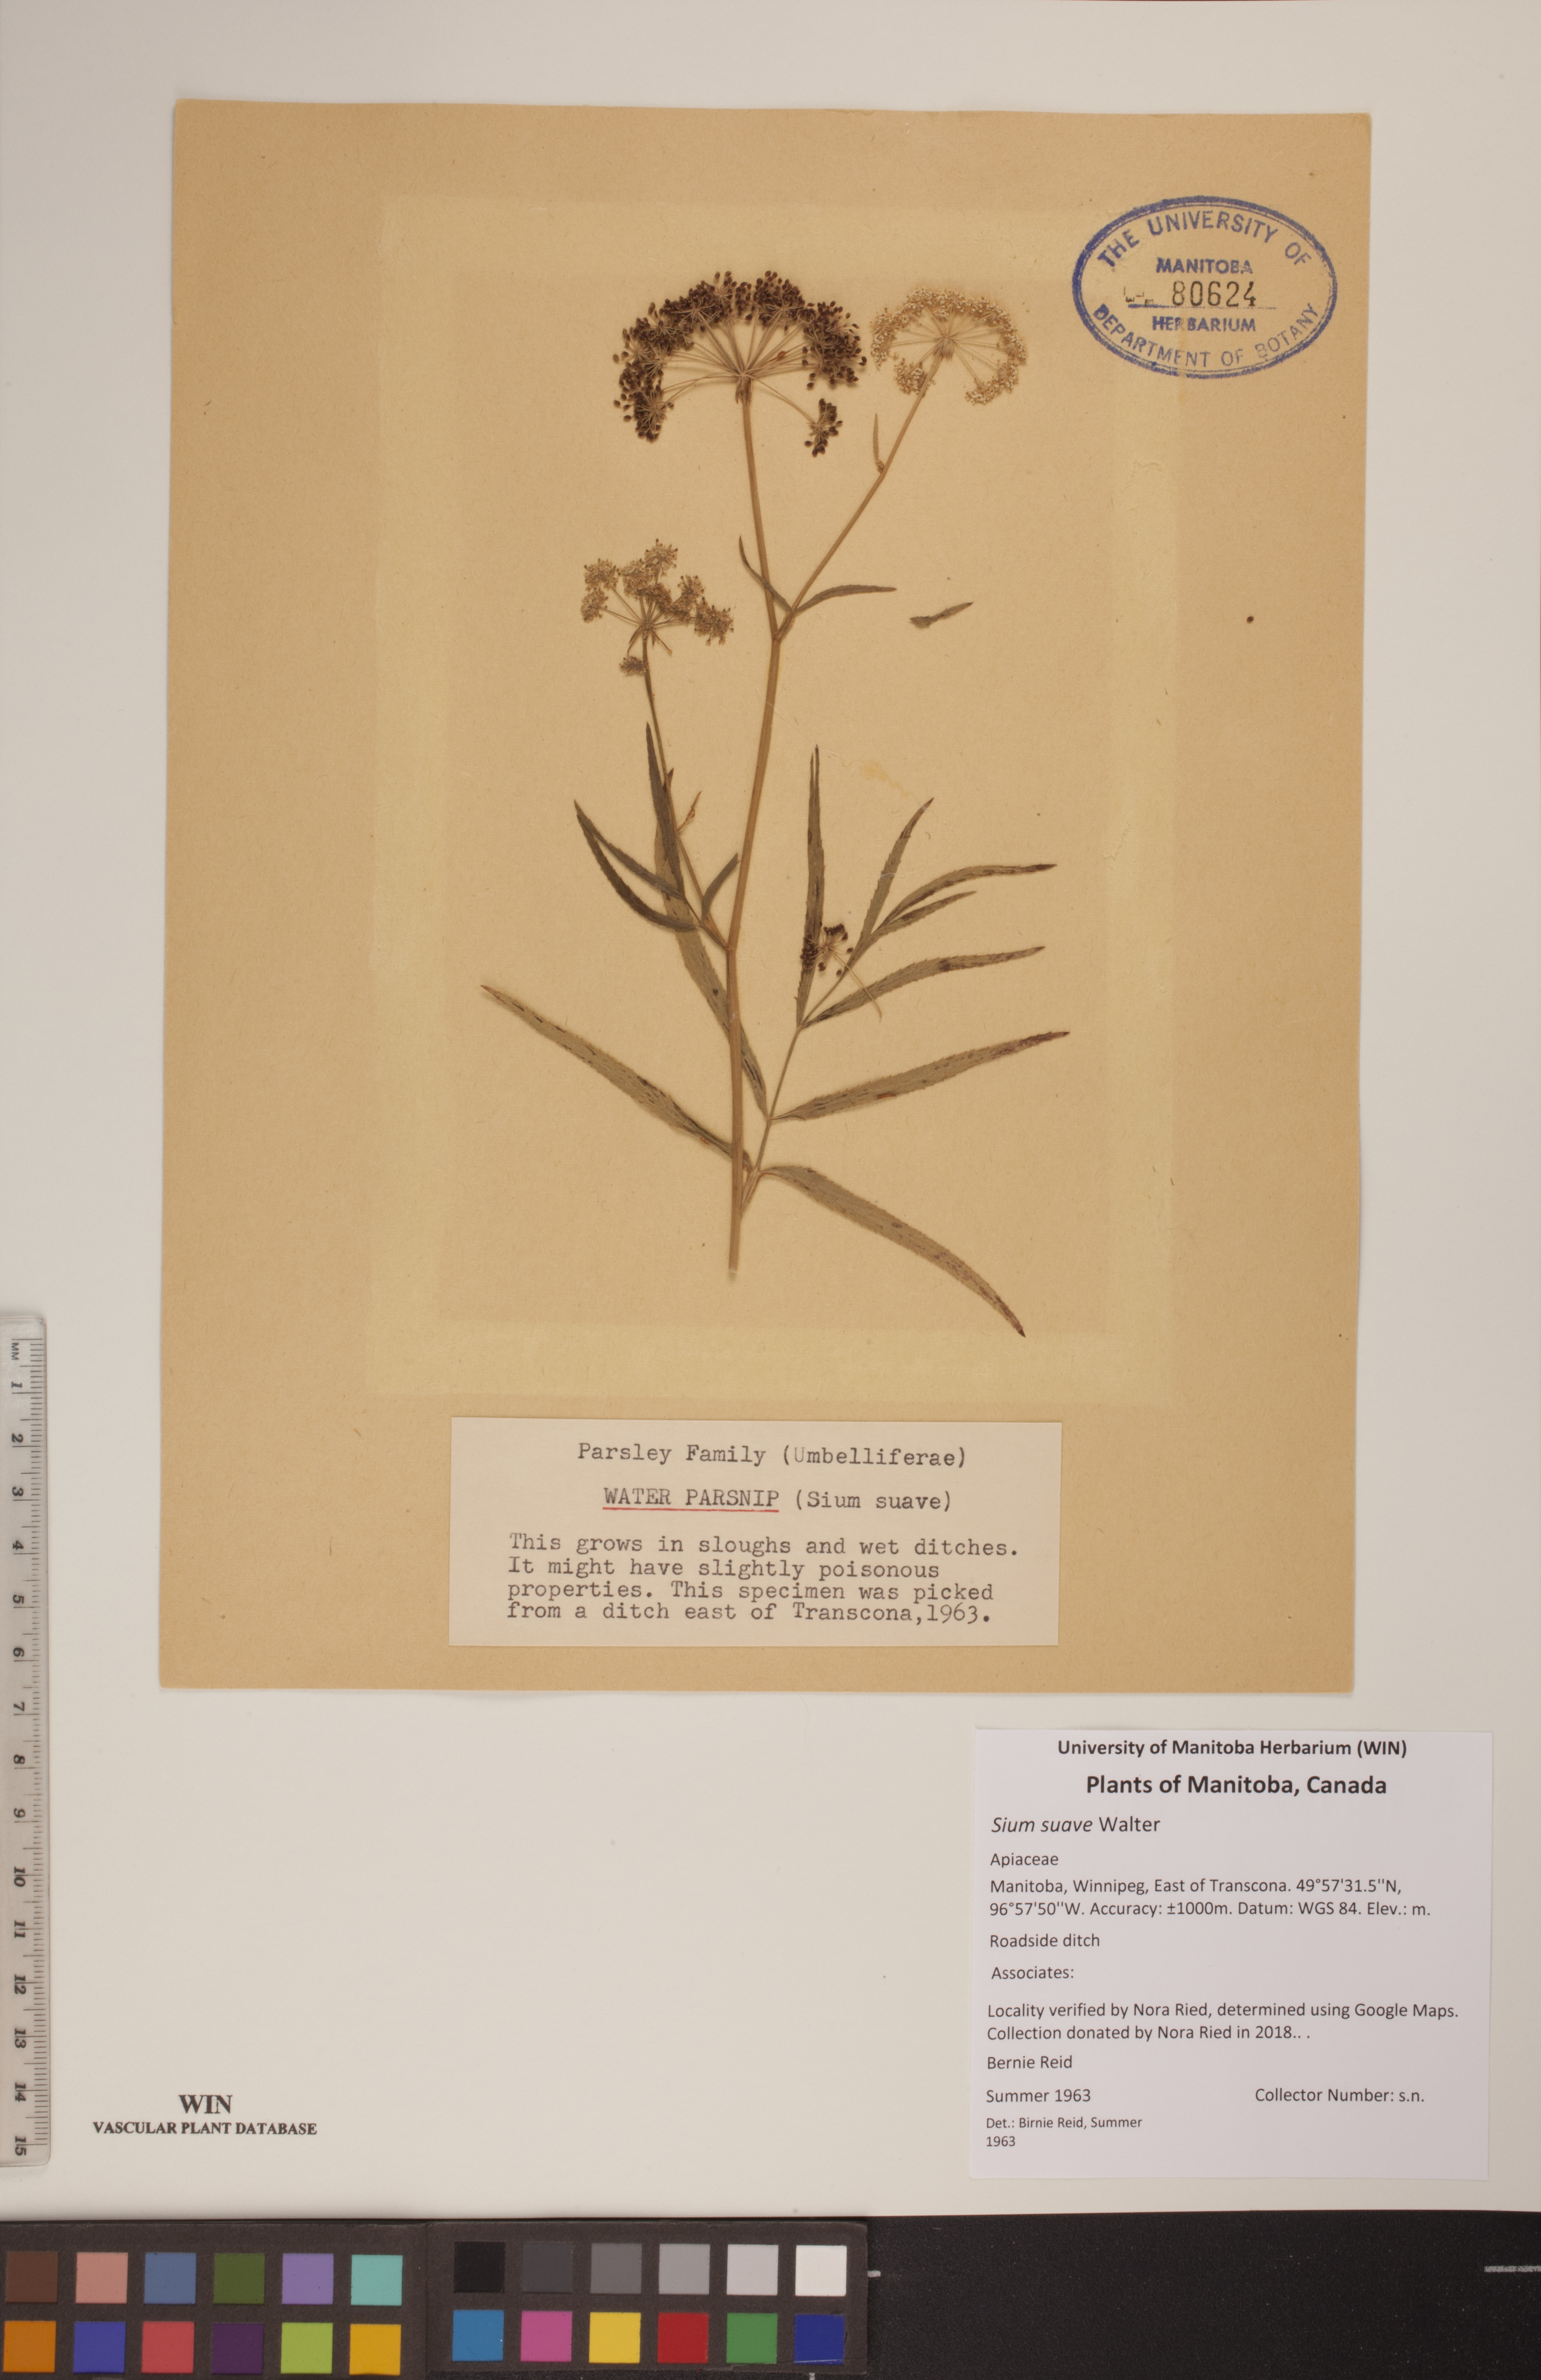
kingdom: Plantae
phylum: Tracheophyta
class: Magnoliopsida
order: Apiales
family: Apiaceae
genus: Sium
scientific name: Sium suave
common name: Hemlock water-parsnip
